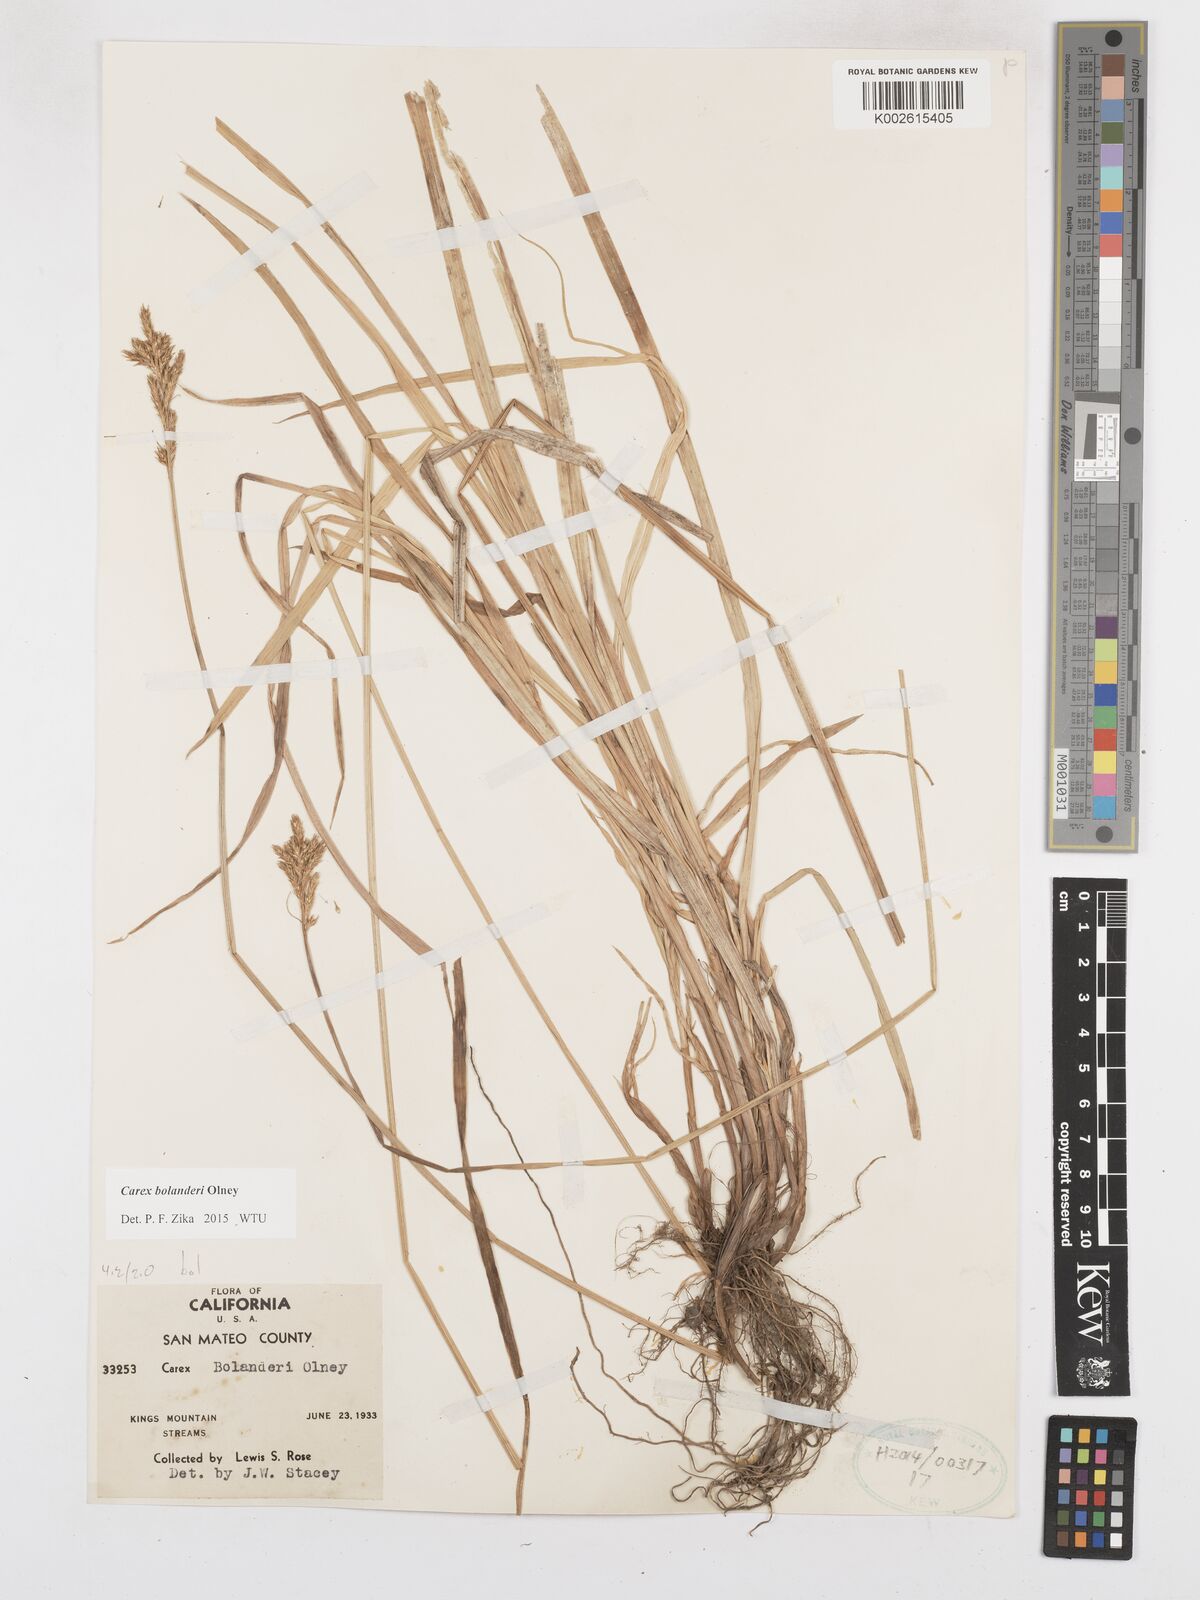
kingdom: Plantae
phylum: Tracheophyta
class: Liliopsida
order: Poales
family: Cyperaceae
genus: Carex
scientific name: Carex bolanderi
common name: Bolander's sedge
